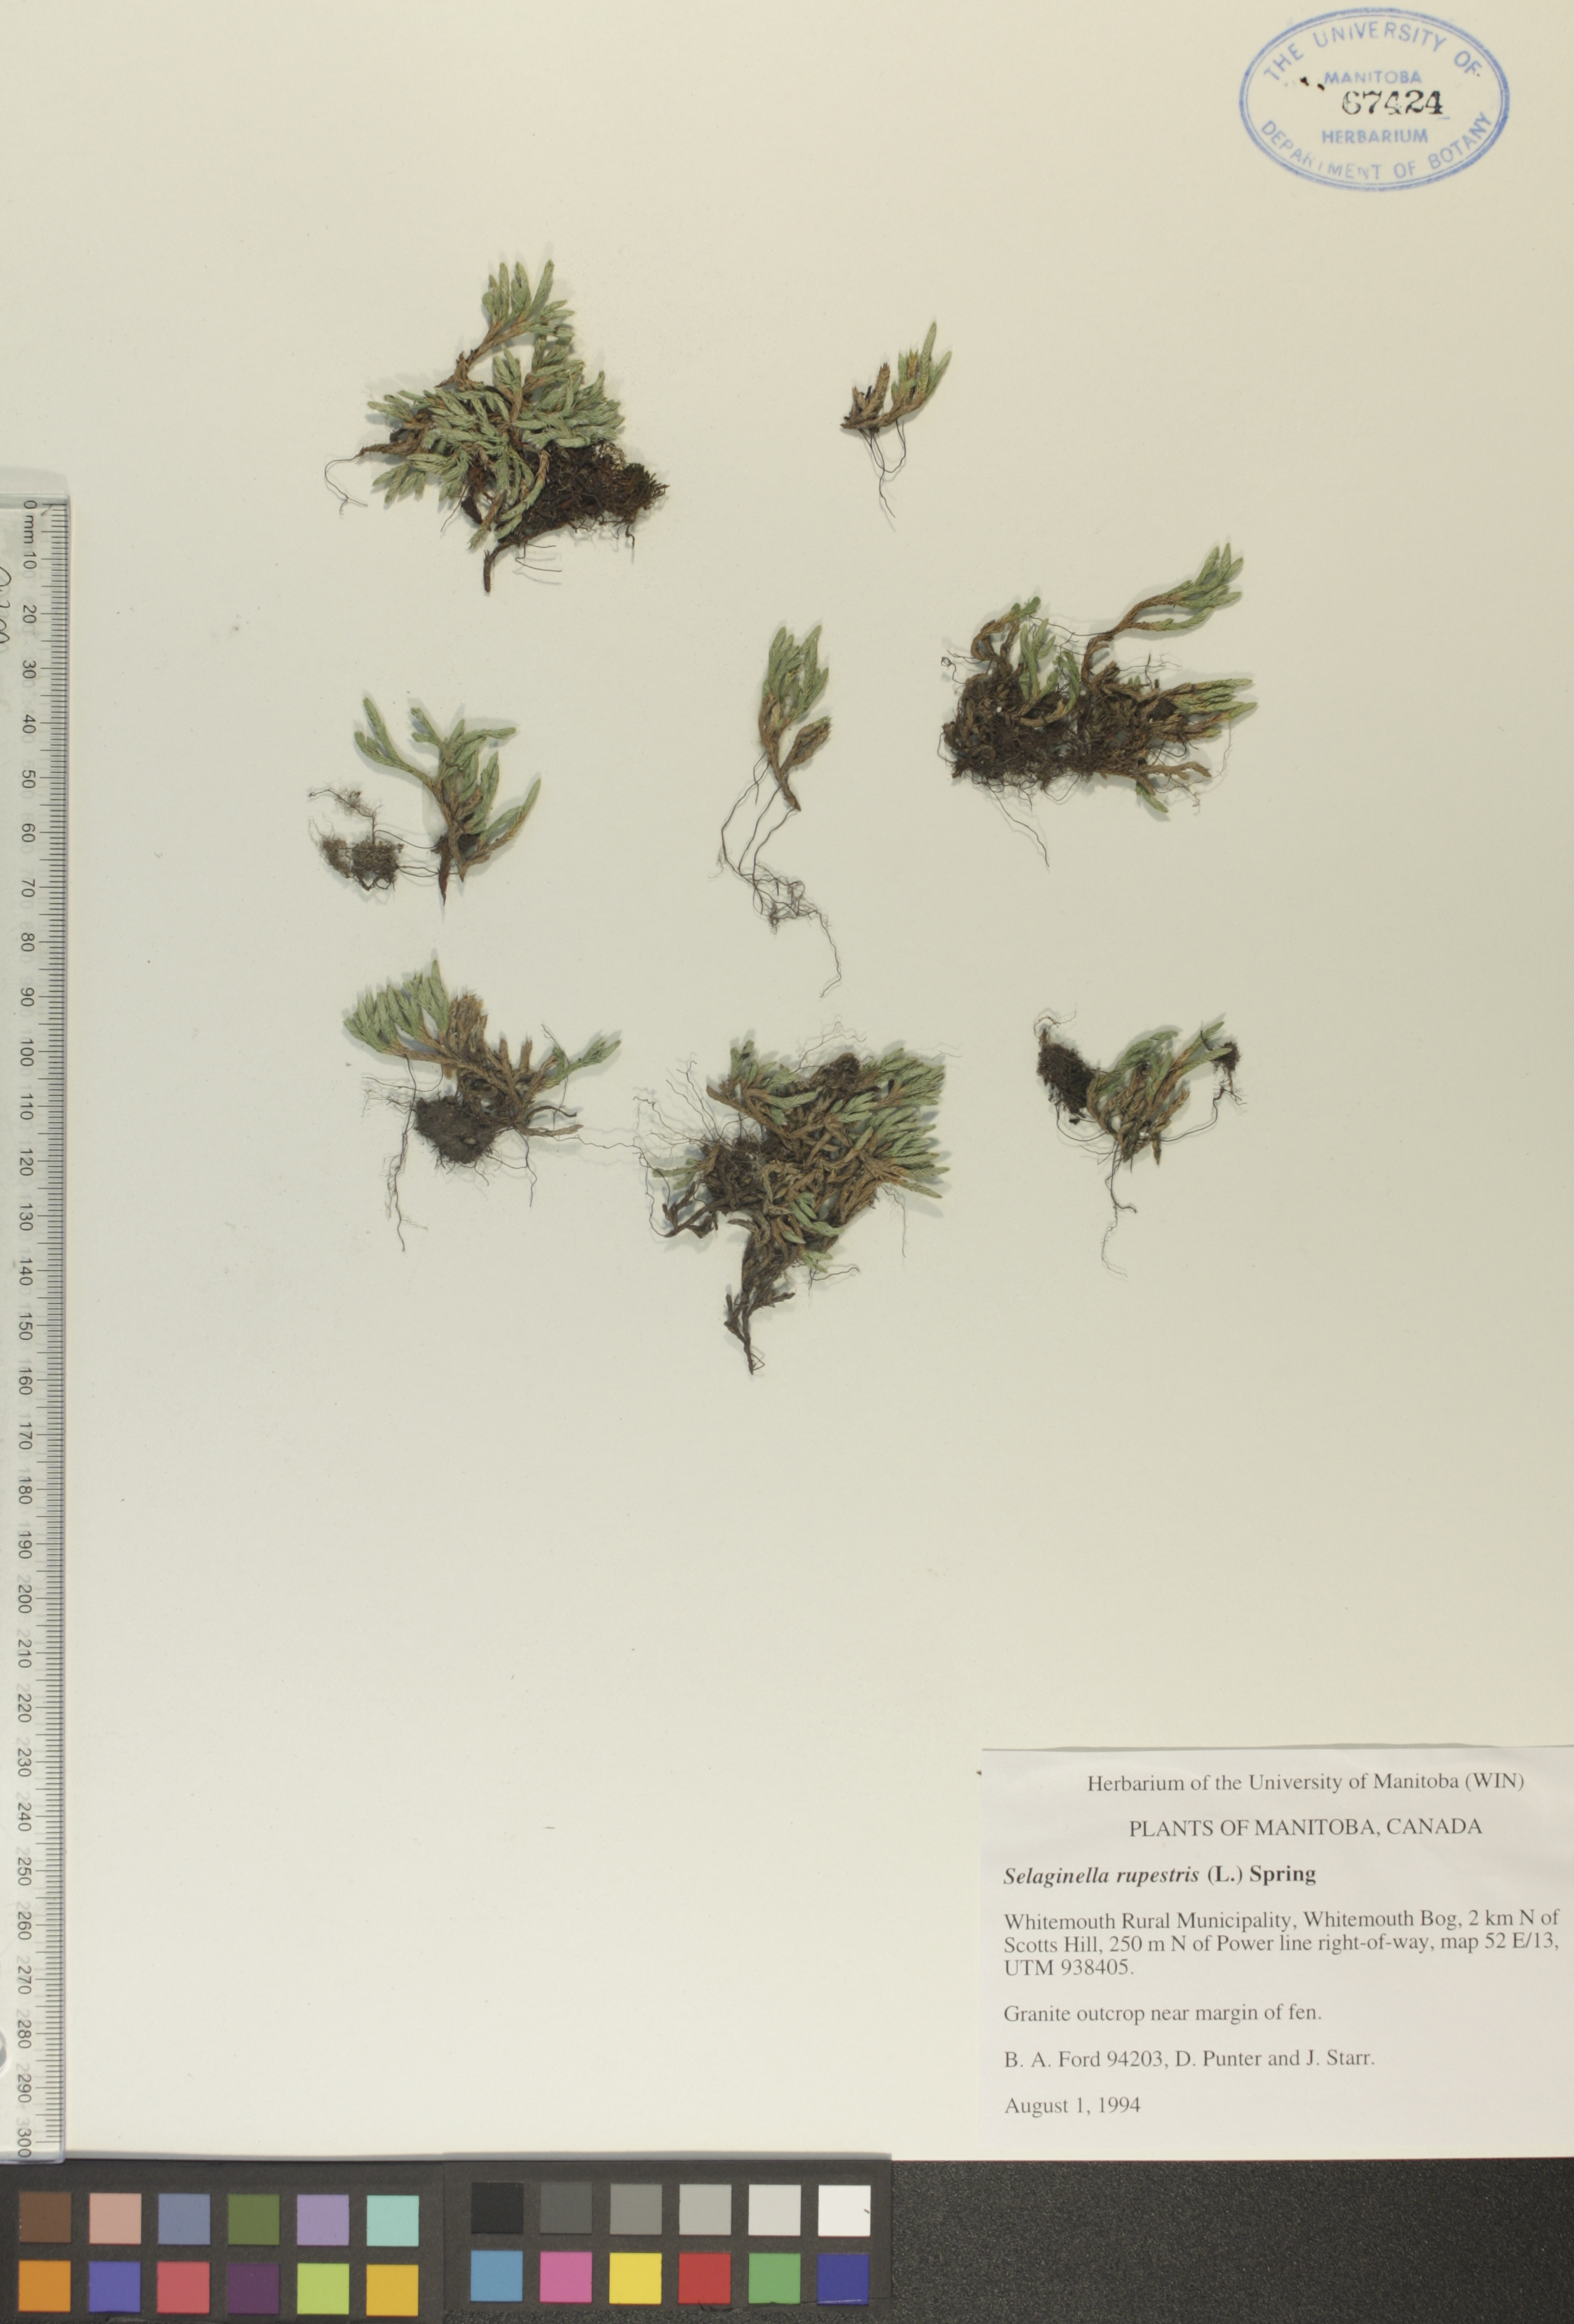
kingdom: Plantae
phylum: Tracheophyta
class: Lycopodiopsida
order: Selaginellales
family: Selaginellaceae
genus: Selaginella
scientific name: Selaginella rupestris
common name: Dwarf spikemoss
